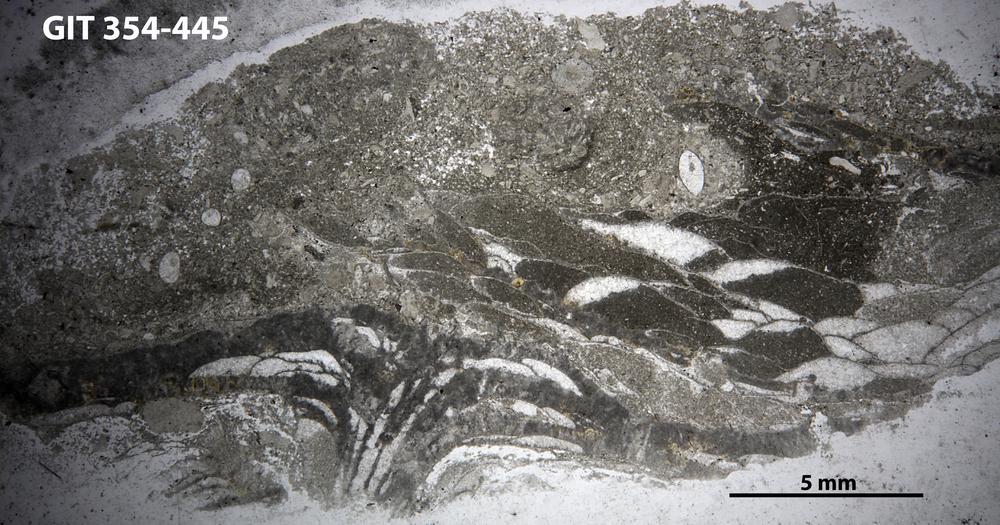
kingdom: Animalia
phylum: Porifera
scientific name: Porifera
